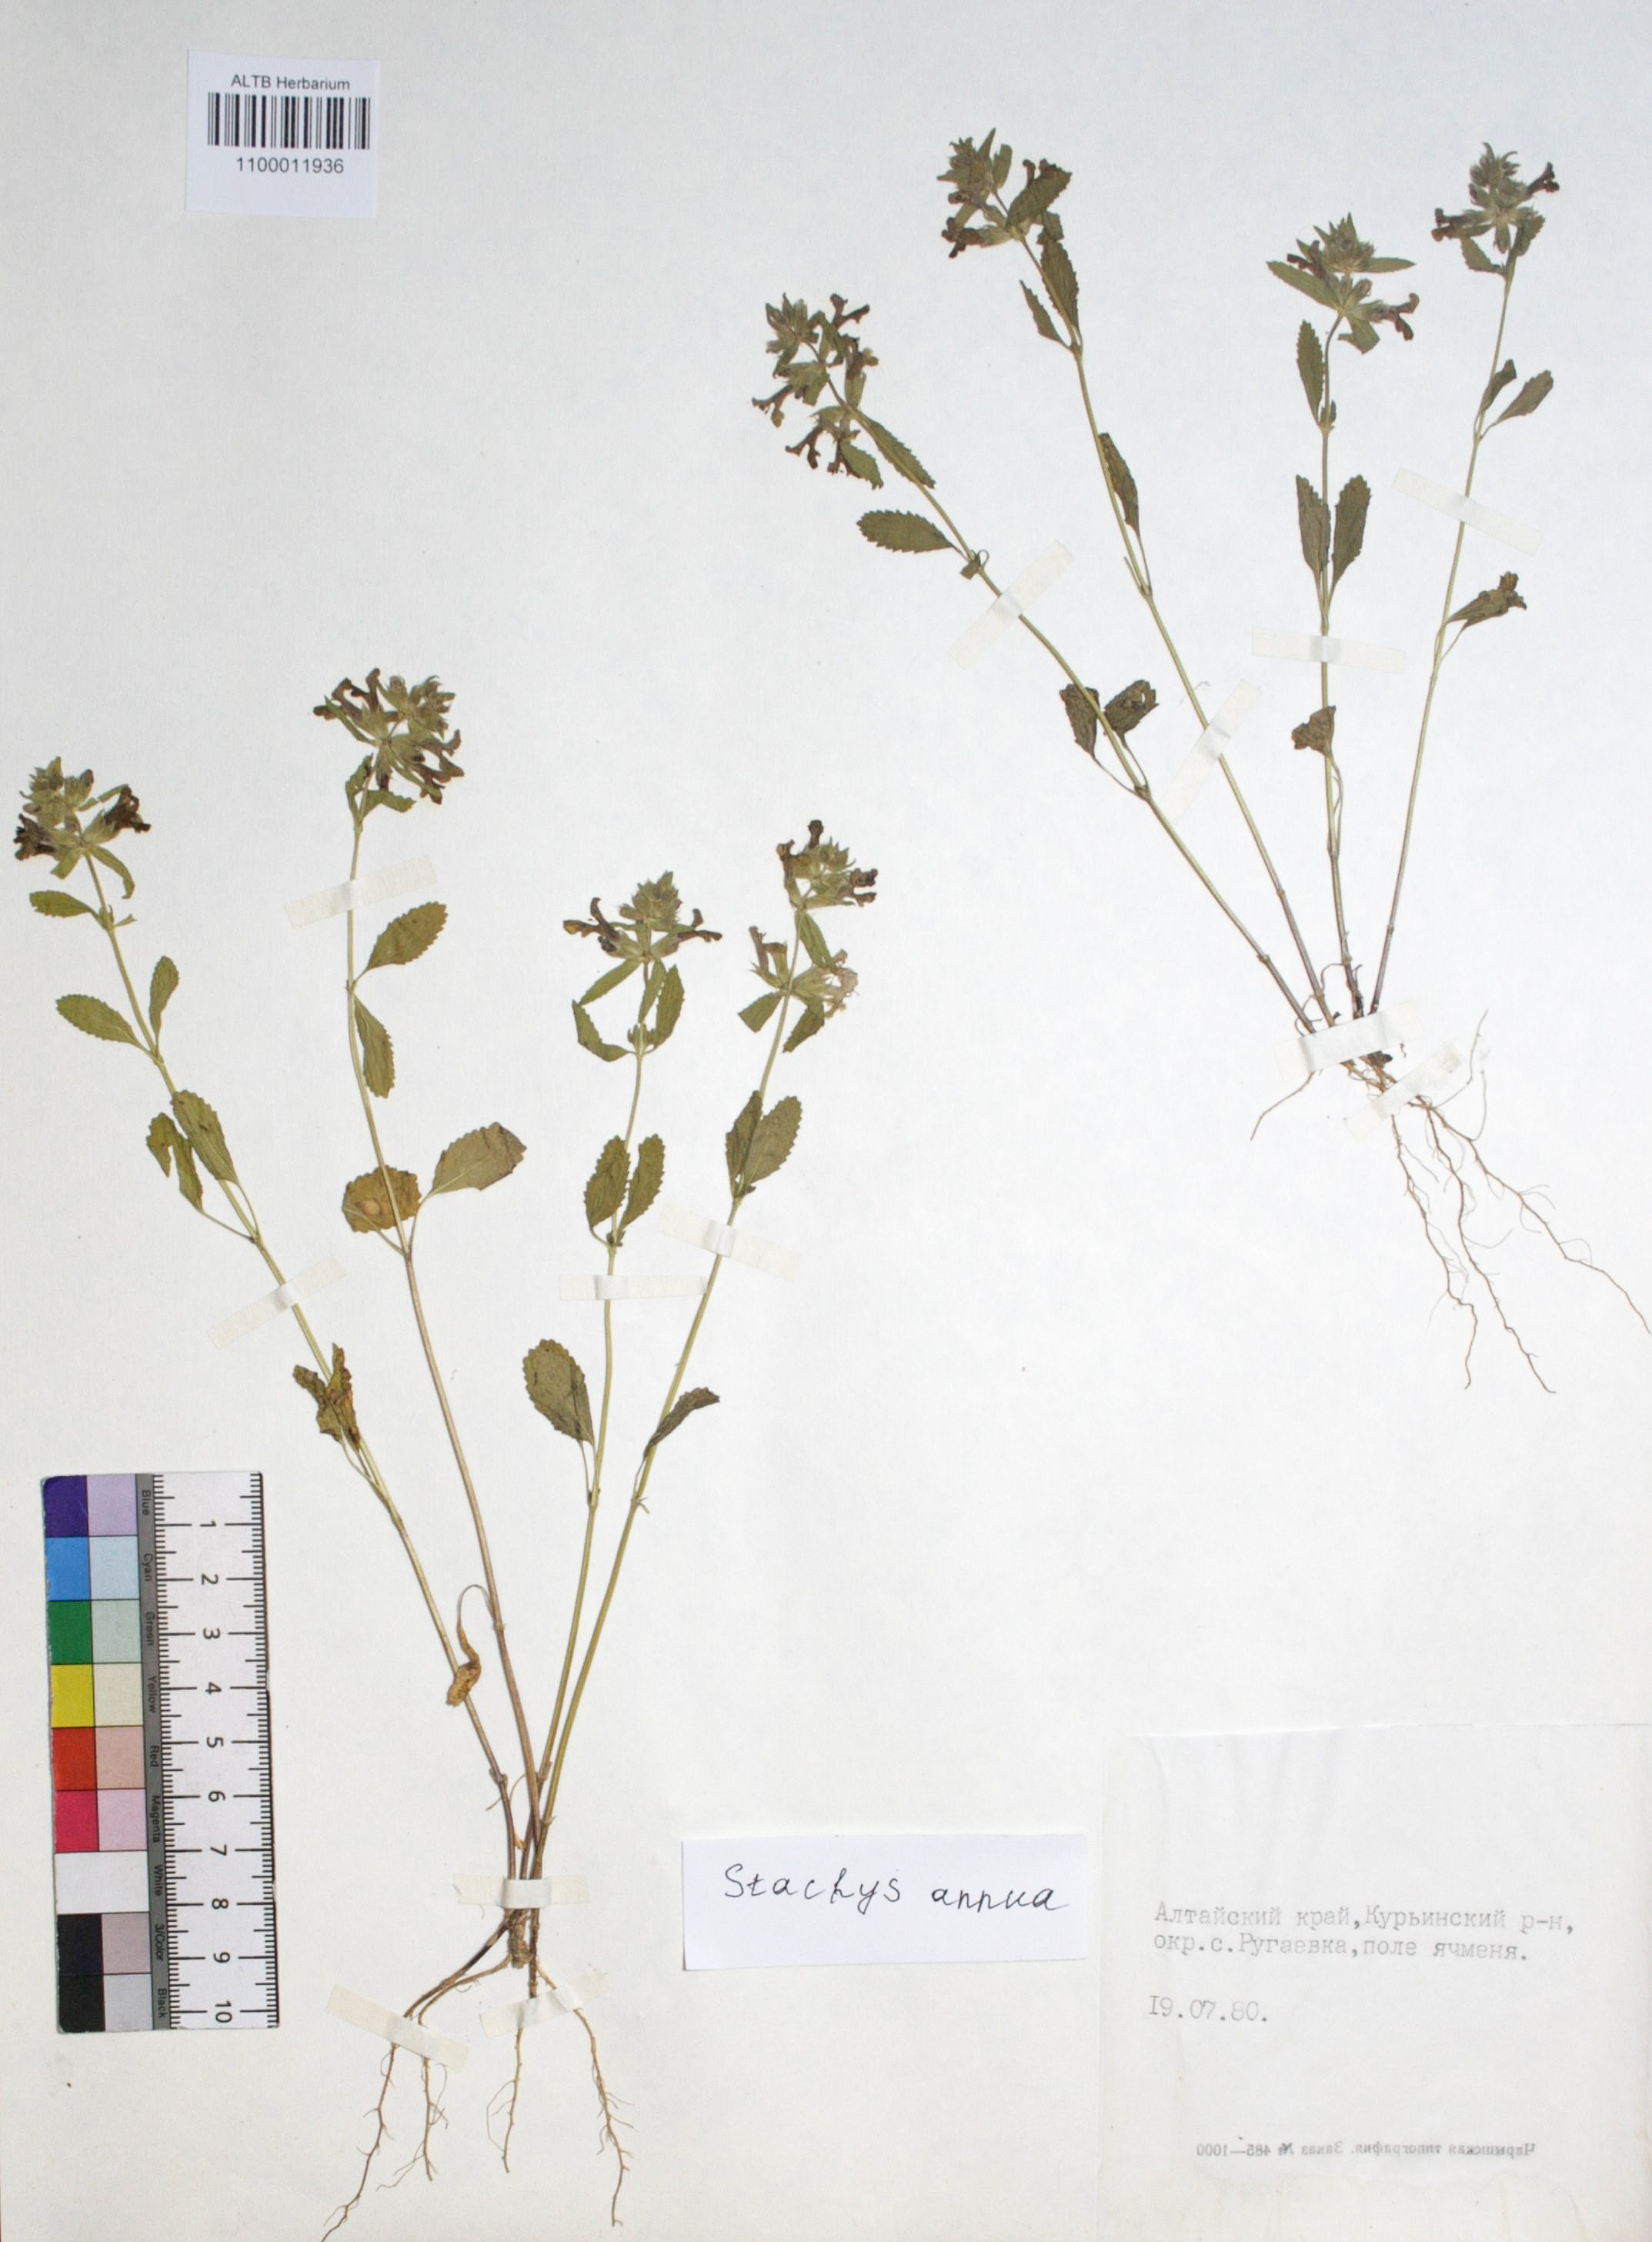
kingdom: Plantae
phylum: Tracheophyta
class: Magnoliopsida
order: Lamiales
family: Lamiaceae
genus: Stachys
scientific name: Stachys annua
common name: Annual yellow-woundwort
